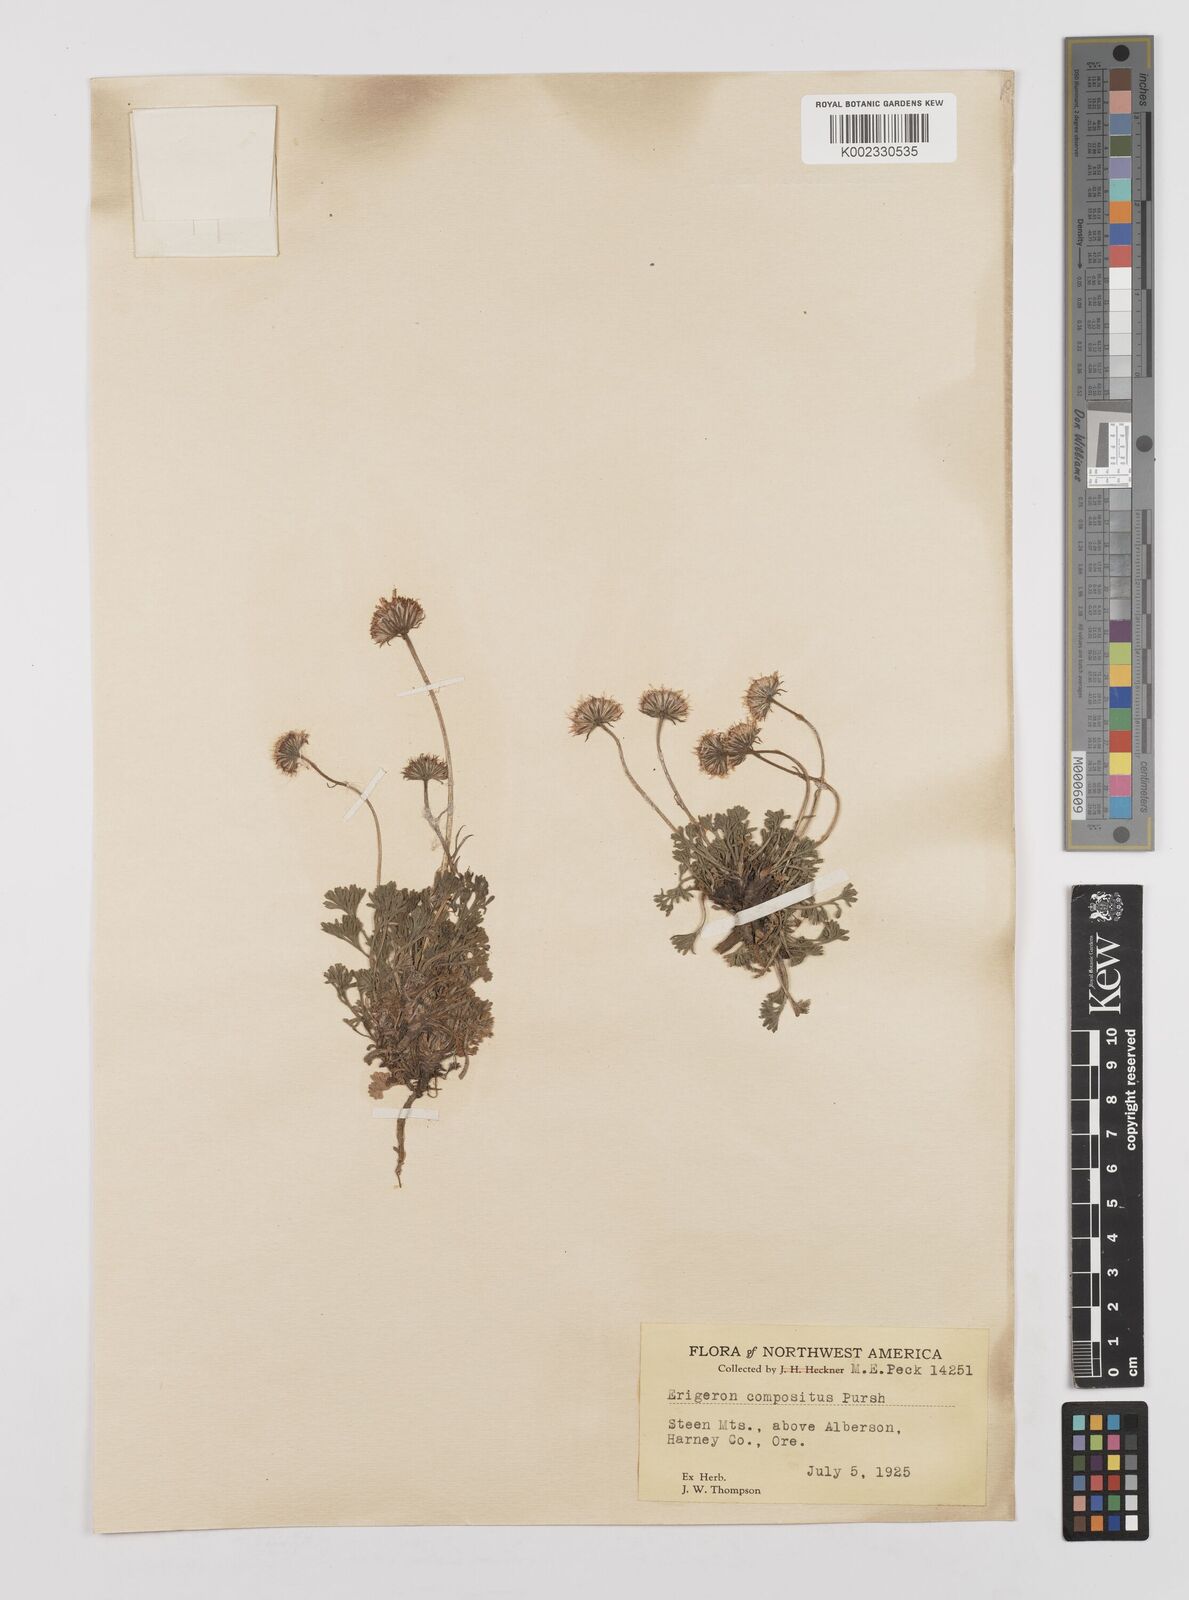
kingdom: Plantae
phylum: Tracheophyta
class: Magnoliopsida
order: Asterales
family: Asteraceae
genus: Erigeron
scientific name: Erigeron compositus
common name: Dwarf mountain fleabane
